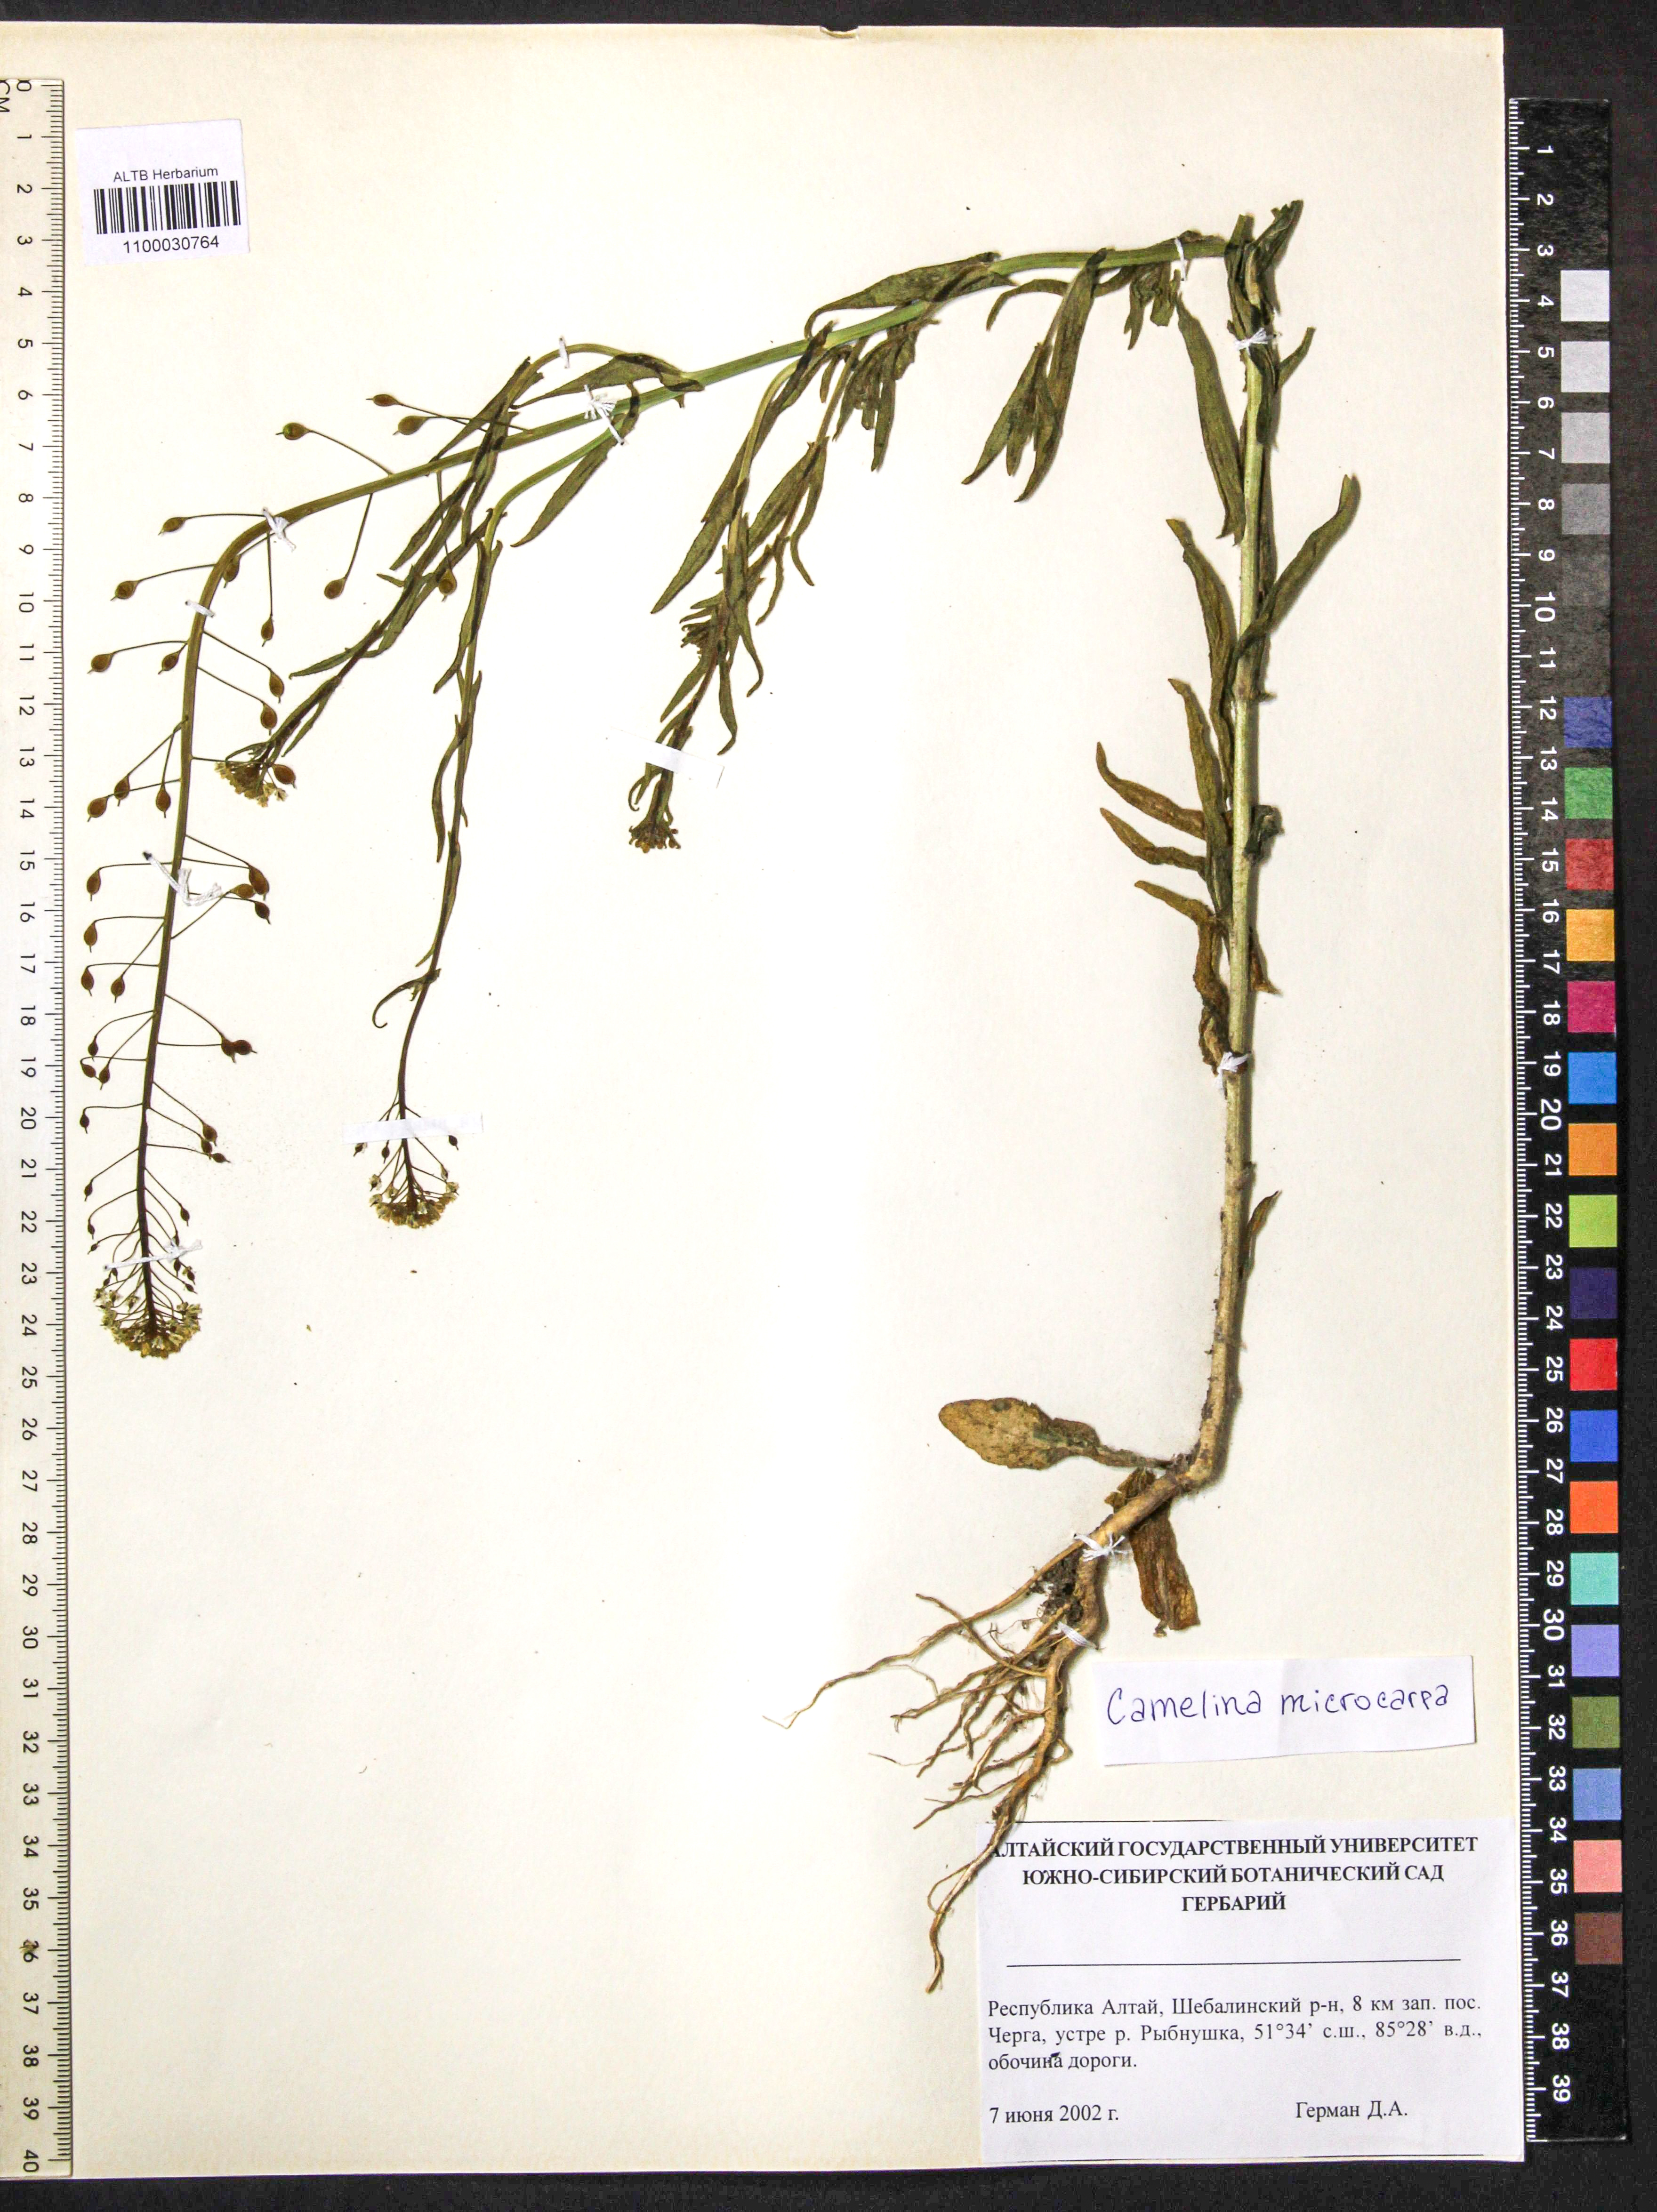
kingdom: Plantae
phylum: Tracheophyta
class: Magnoliopsida
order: Brassicales
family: Brassicaceae
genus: Camelina
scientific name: Camelina microcarpa
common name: Lesser gold-of-pleasure
